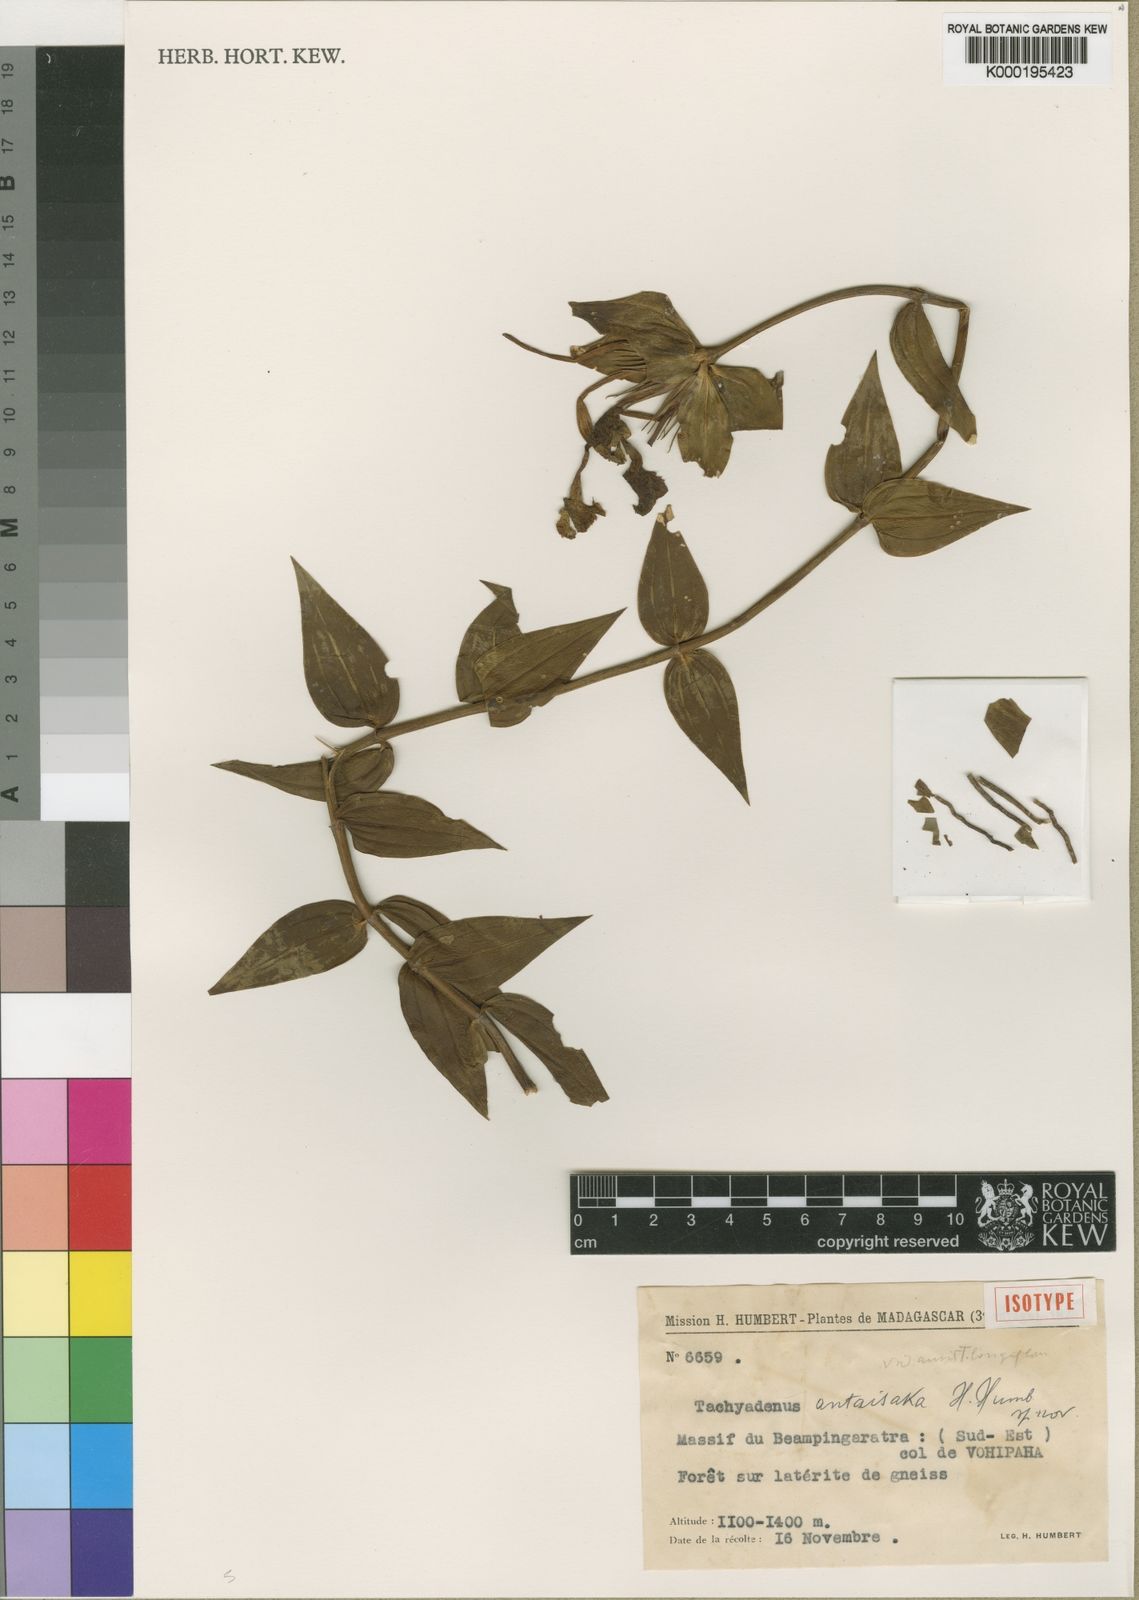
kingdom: Plantae
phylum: Tracheophyta
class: Magnoliopsida
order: Gentianales
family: Gentianaceae
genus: Tachiadenus
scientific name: Tachiadenus antaisaka
